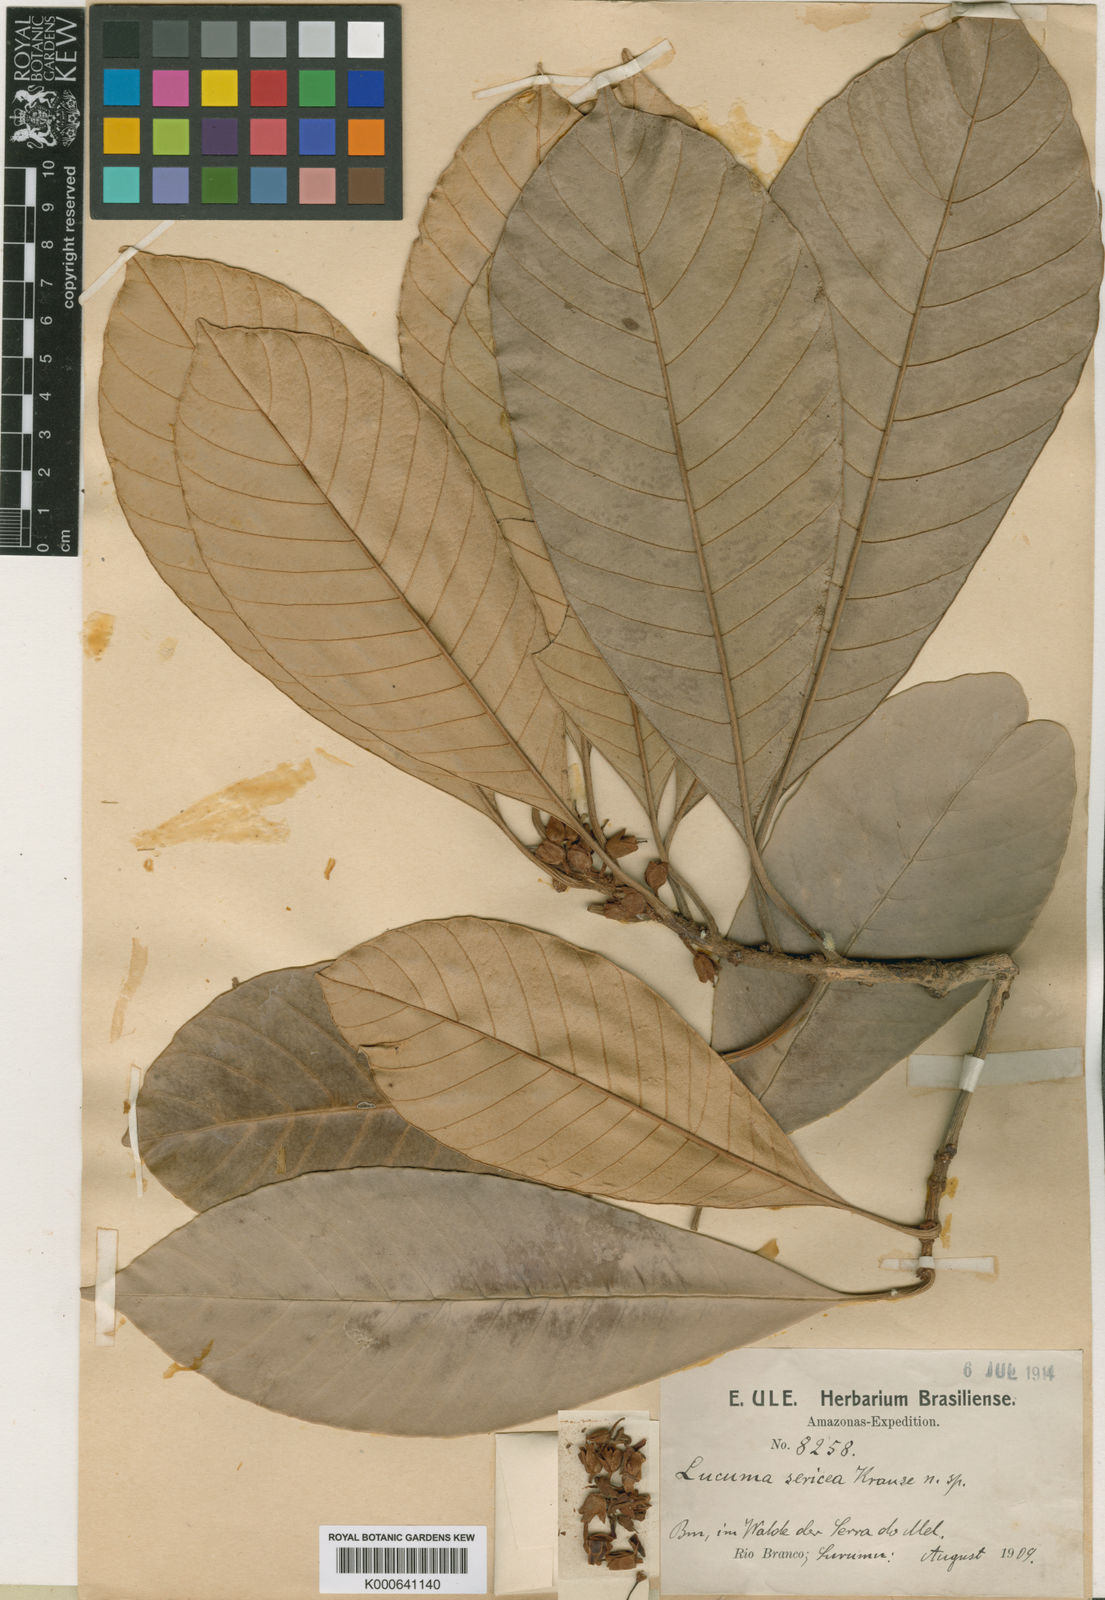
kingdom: Plantae
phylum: Tracheophyta
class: Magnoliopsida
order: Ericales
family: Sapotaceae
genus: Pouteria
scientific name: Pouteria surumuensis
